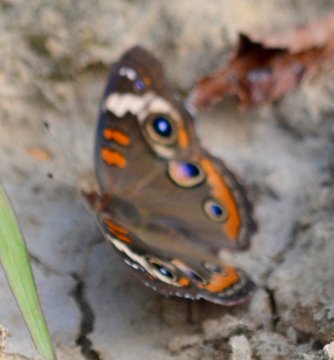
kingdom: Animalia
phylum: Arthropoda
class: Insecta
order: Lepidoptera
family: Nymphalidae
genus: Junonia
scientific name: Junonia coenia
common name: Common Buckeye
